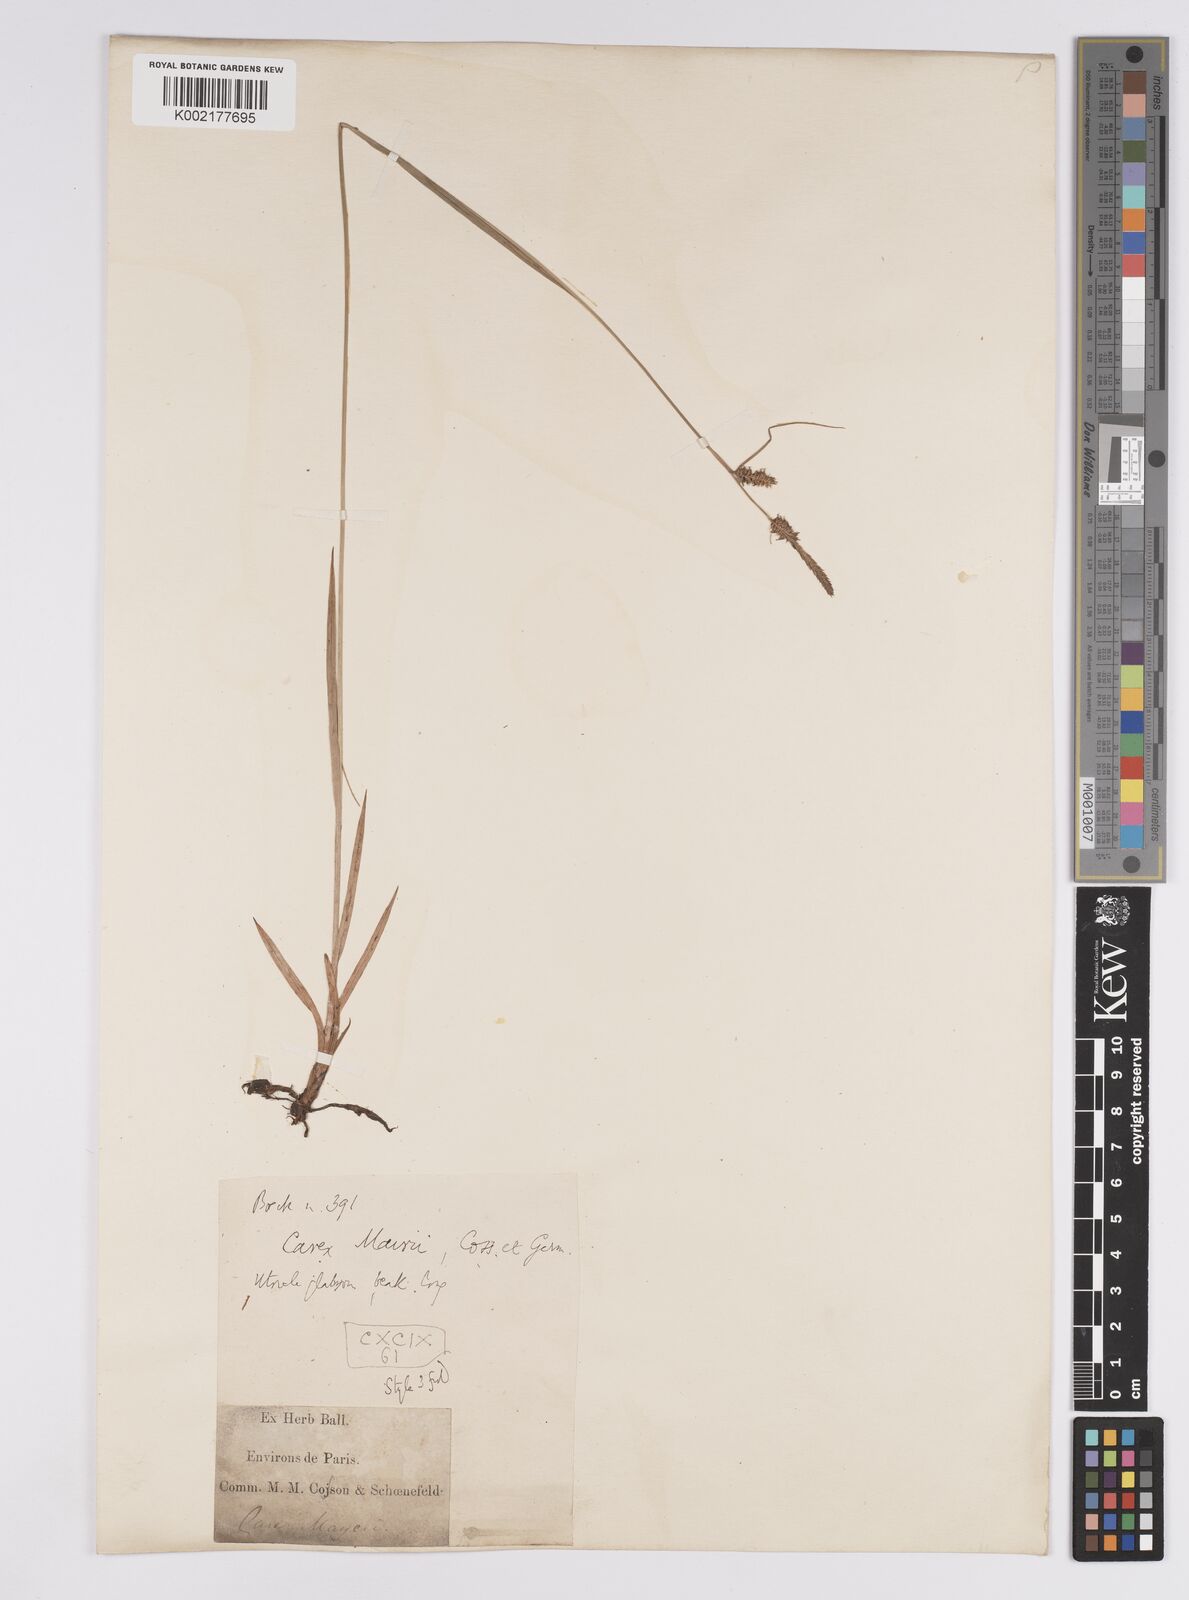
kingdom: Plantae
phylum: Tracheophyta
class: Liliopsida
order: Poales
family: Cyperaceae
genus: Carex
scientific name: Carex mairei
